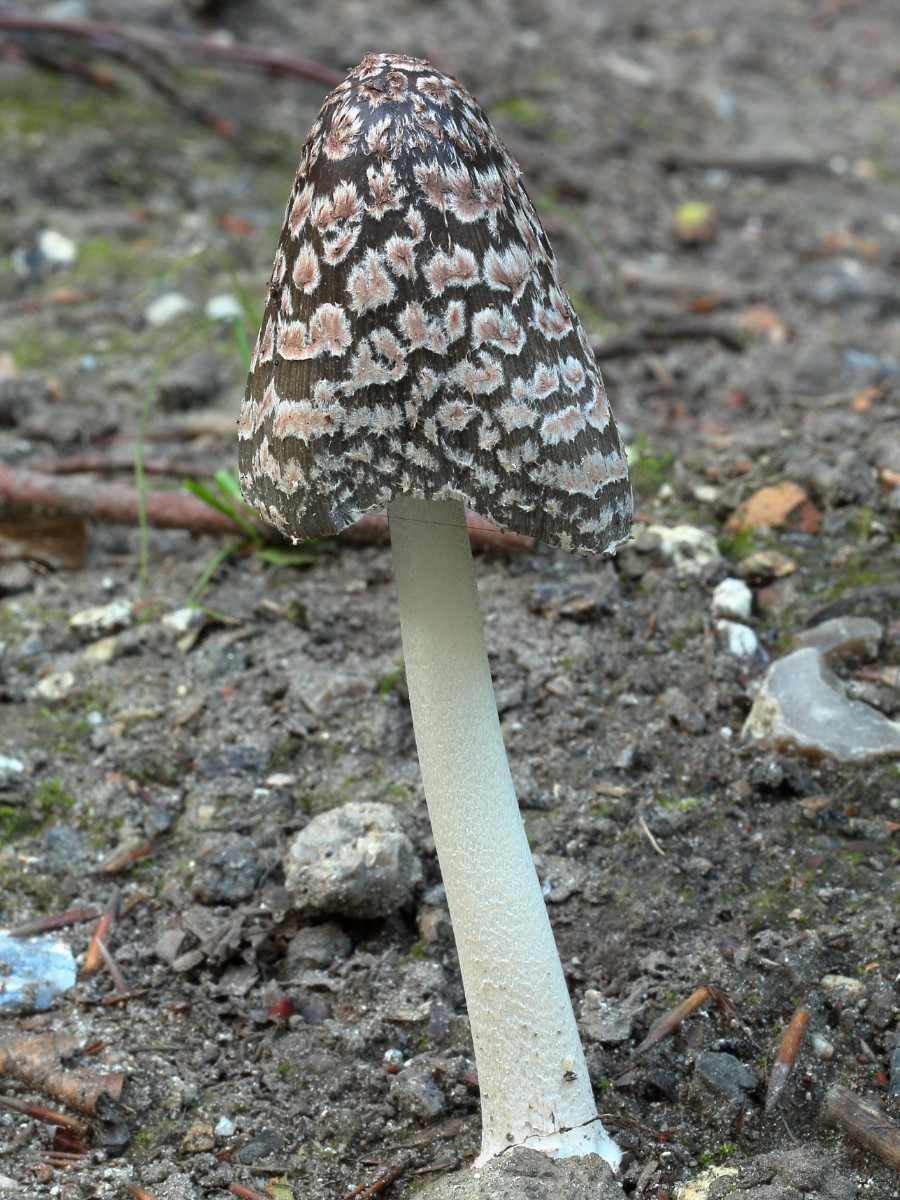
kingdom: Fungi
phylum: Basidiomycota
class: Agaricomycetes
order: Agaricales
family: Psathyrellaceae
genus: Coprinopsis
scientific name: Coprinopsis picacea
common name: skade-blækhat
